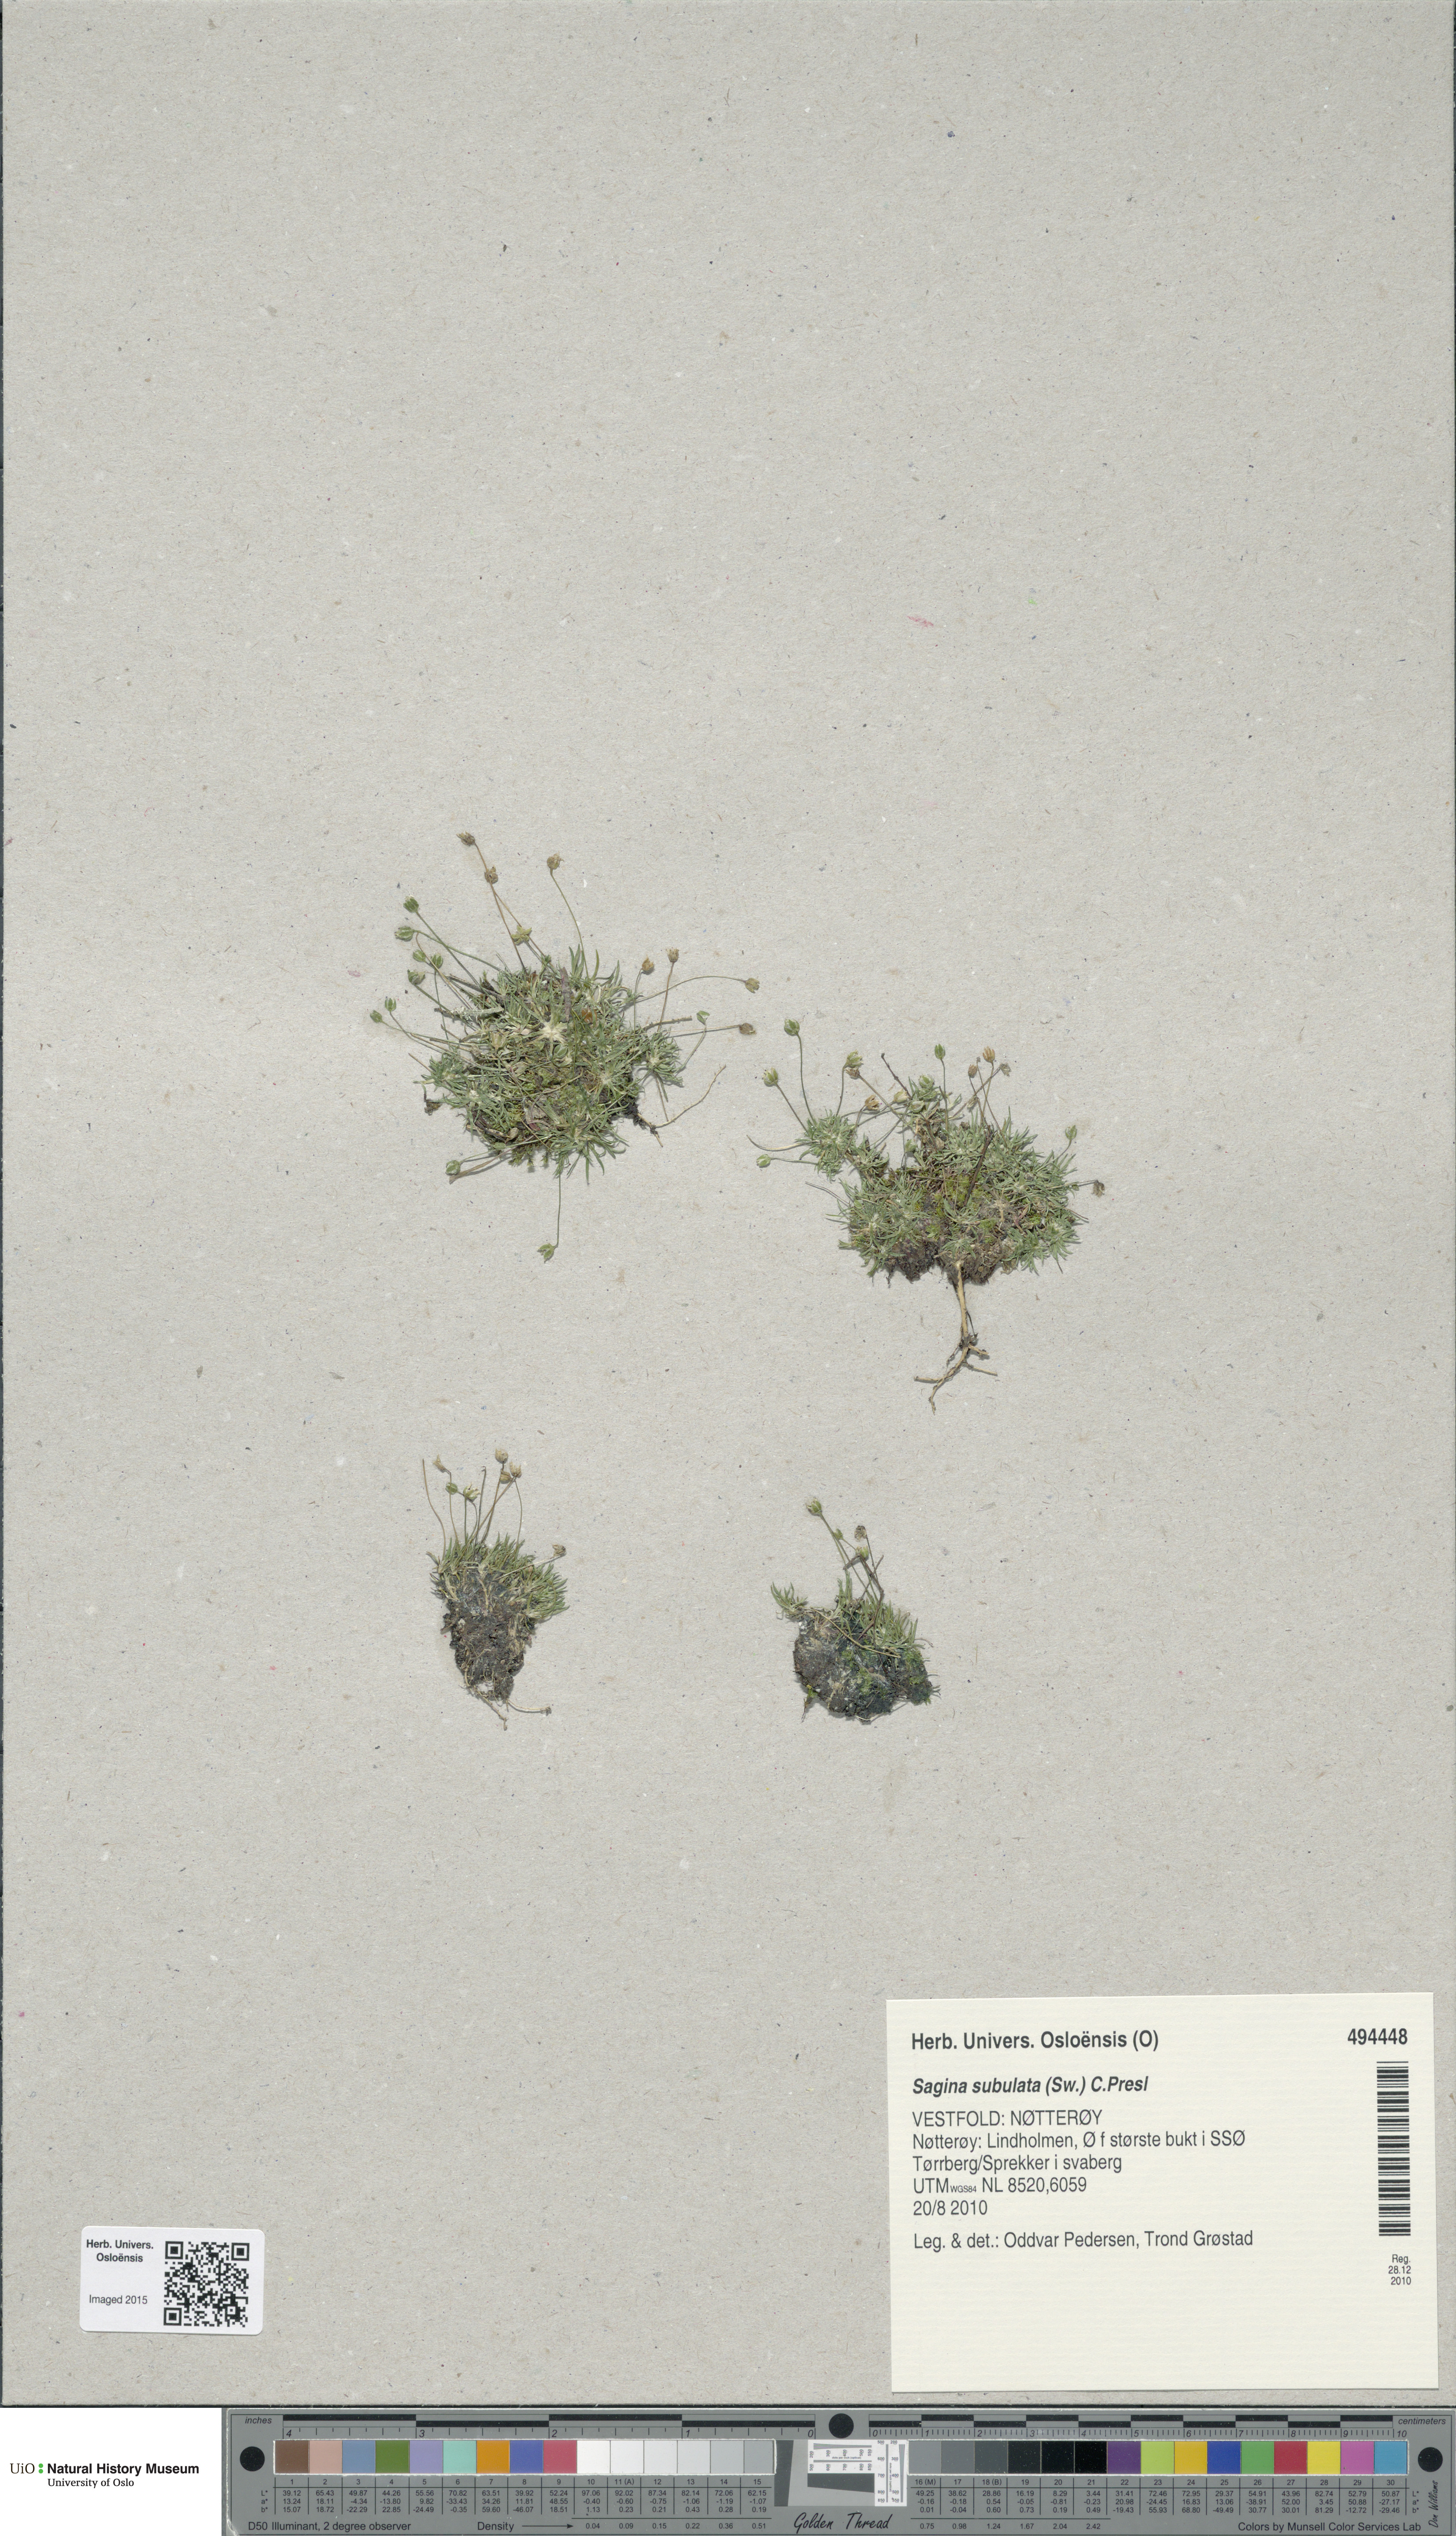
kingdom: Plantae
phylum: Tracheophyta
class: Magnoliopsida
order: Caryophyllales
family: Caryophyllaceae
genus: Sagina
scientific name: Sagina alexandrae
